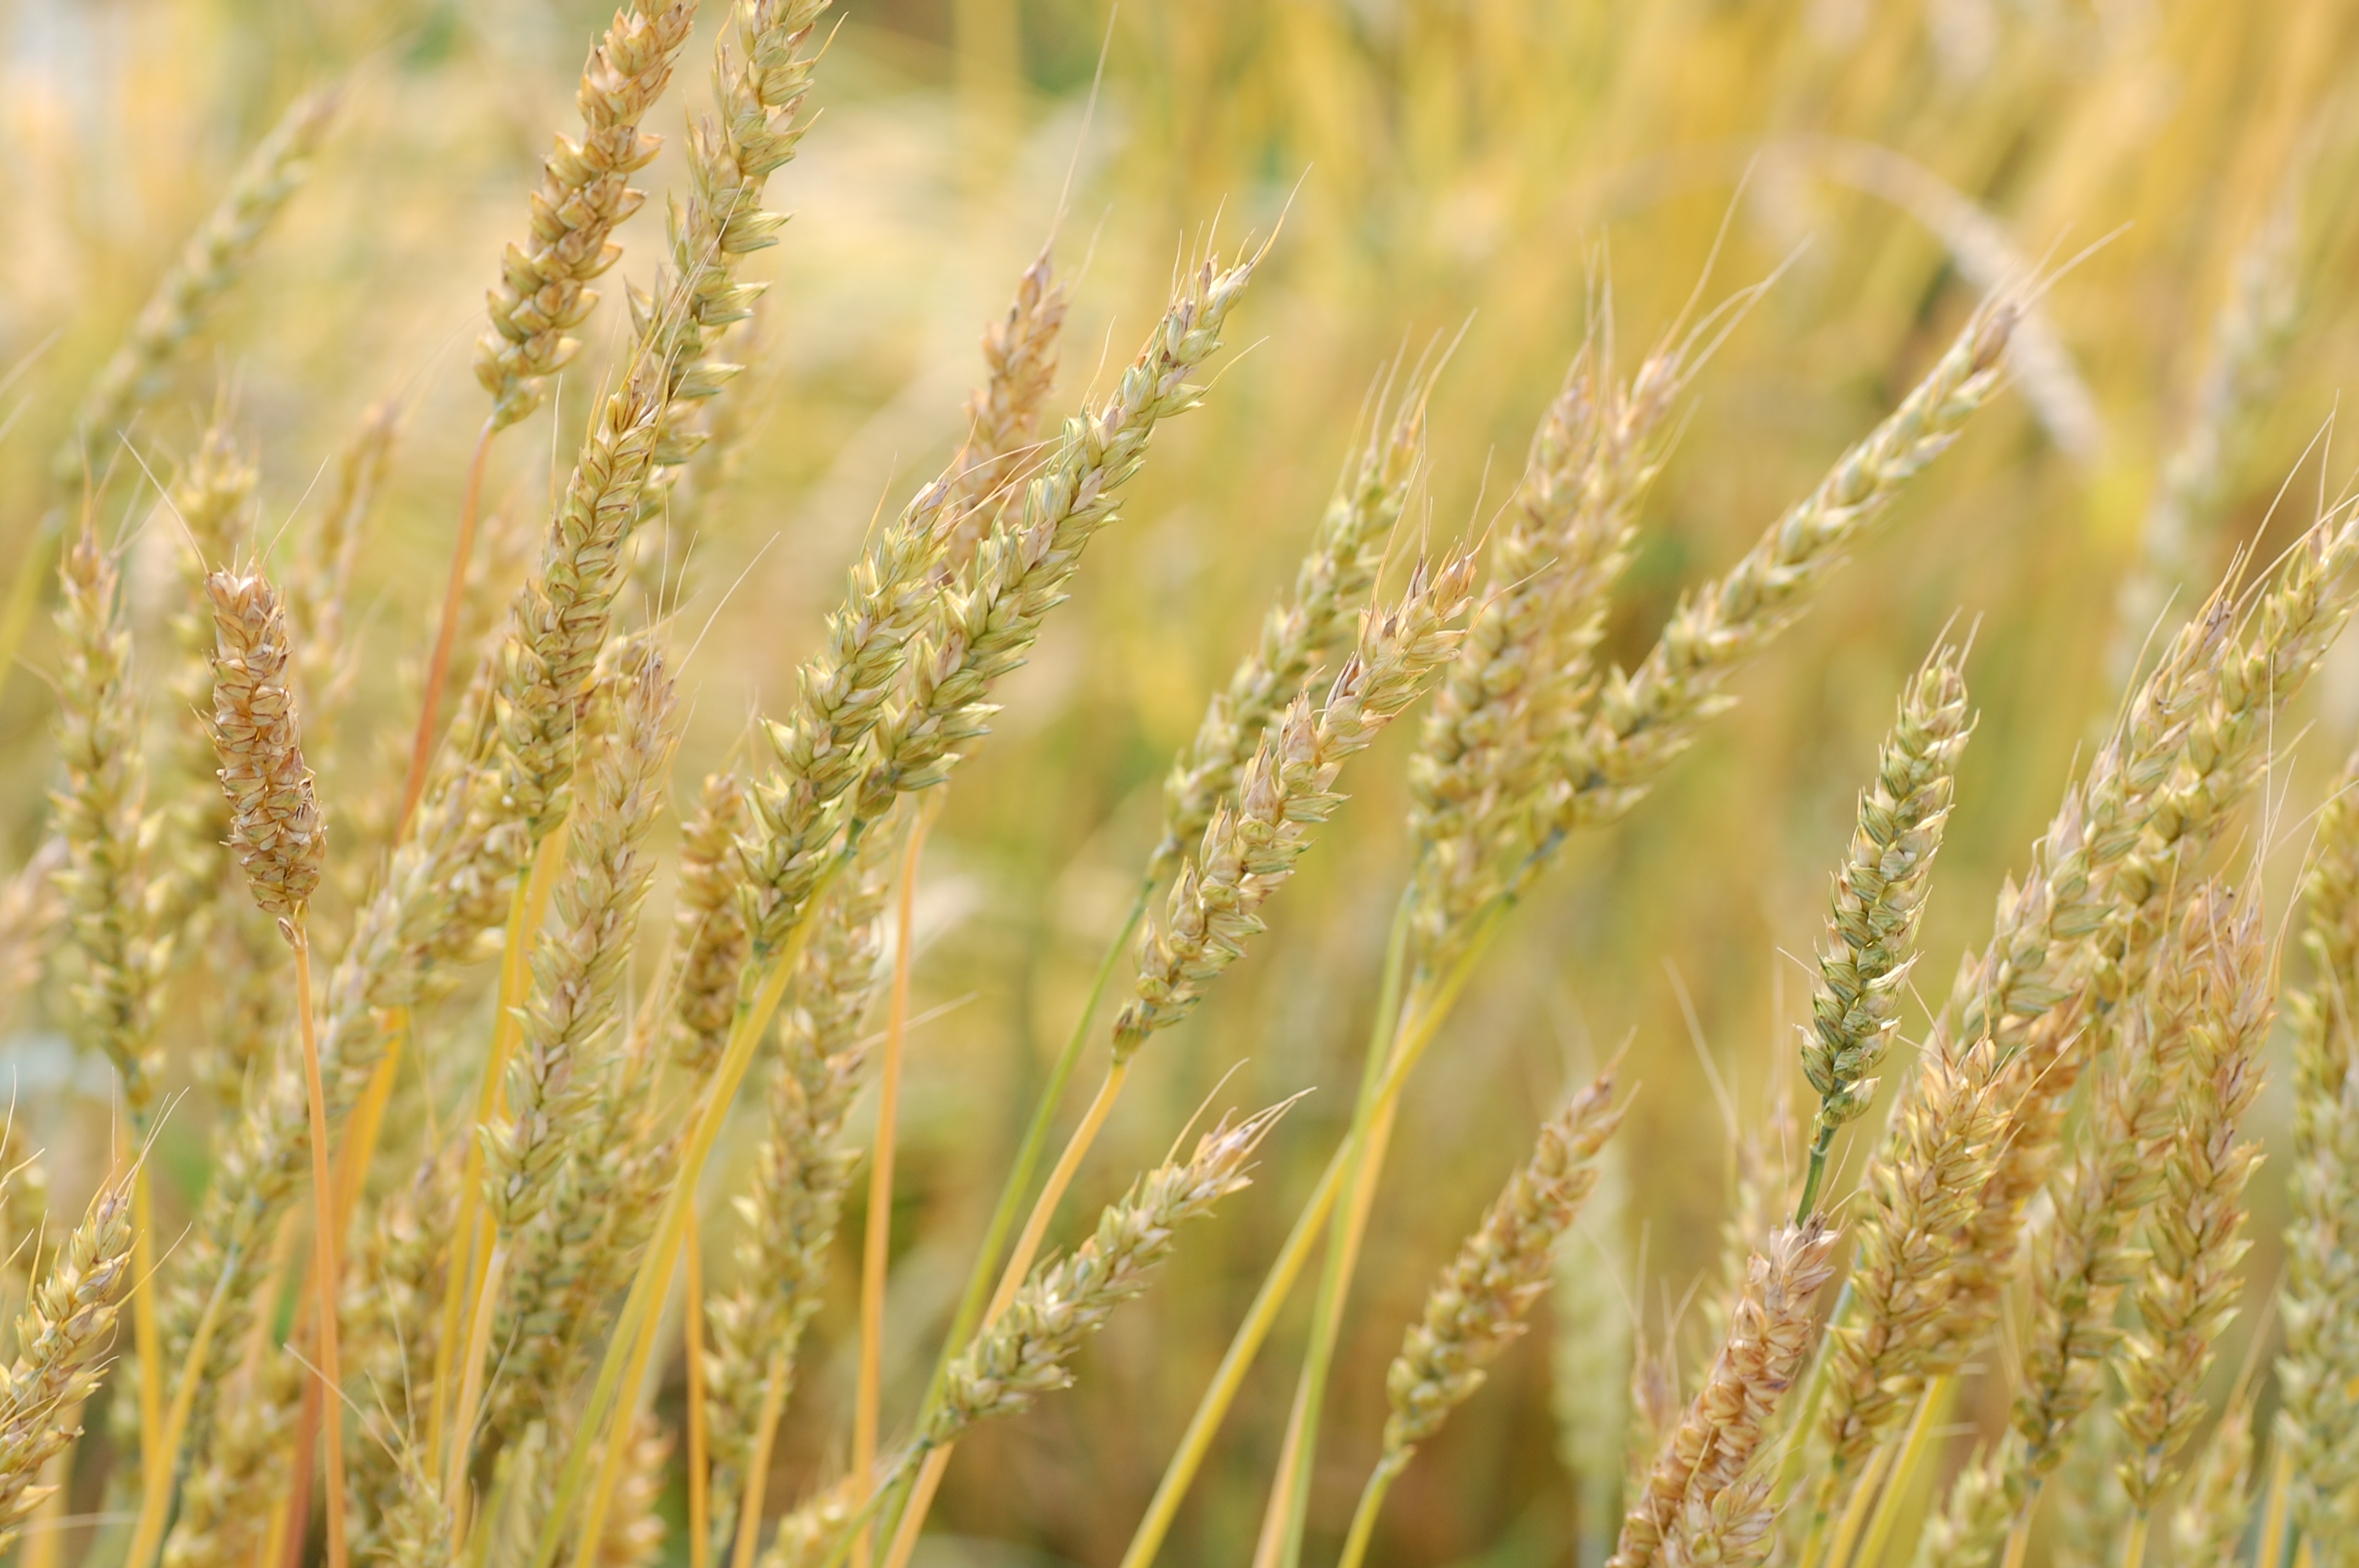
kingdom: Plantae
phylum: Tracheophyta
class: Liliopsida
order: Poales
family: Poaceae
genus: Triticum
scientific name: Triticum aestivum
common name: Common wheat
